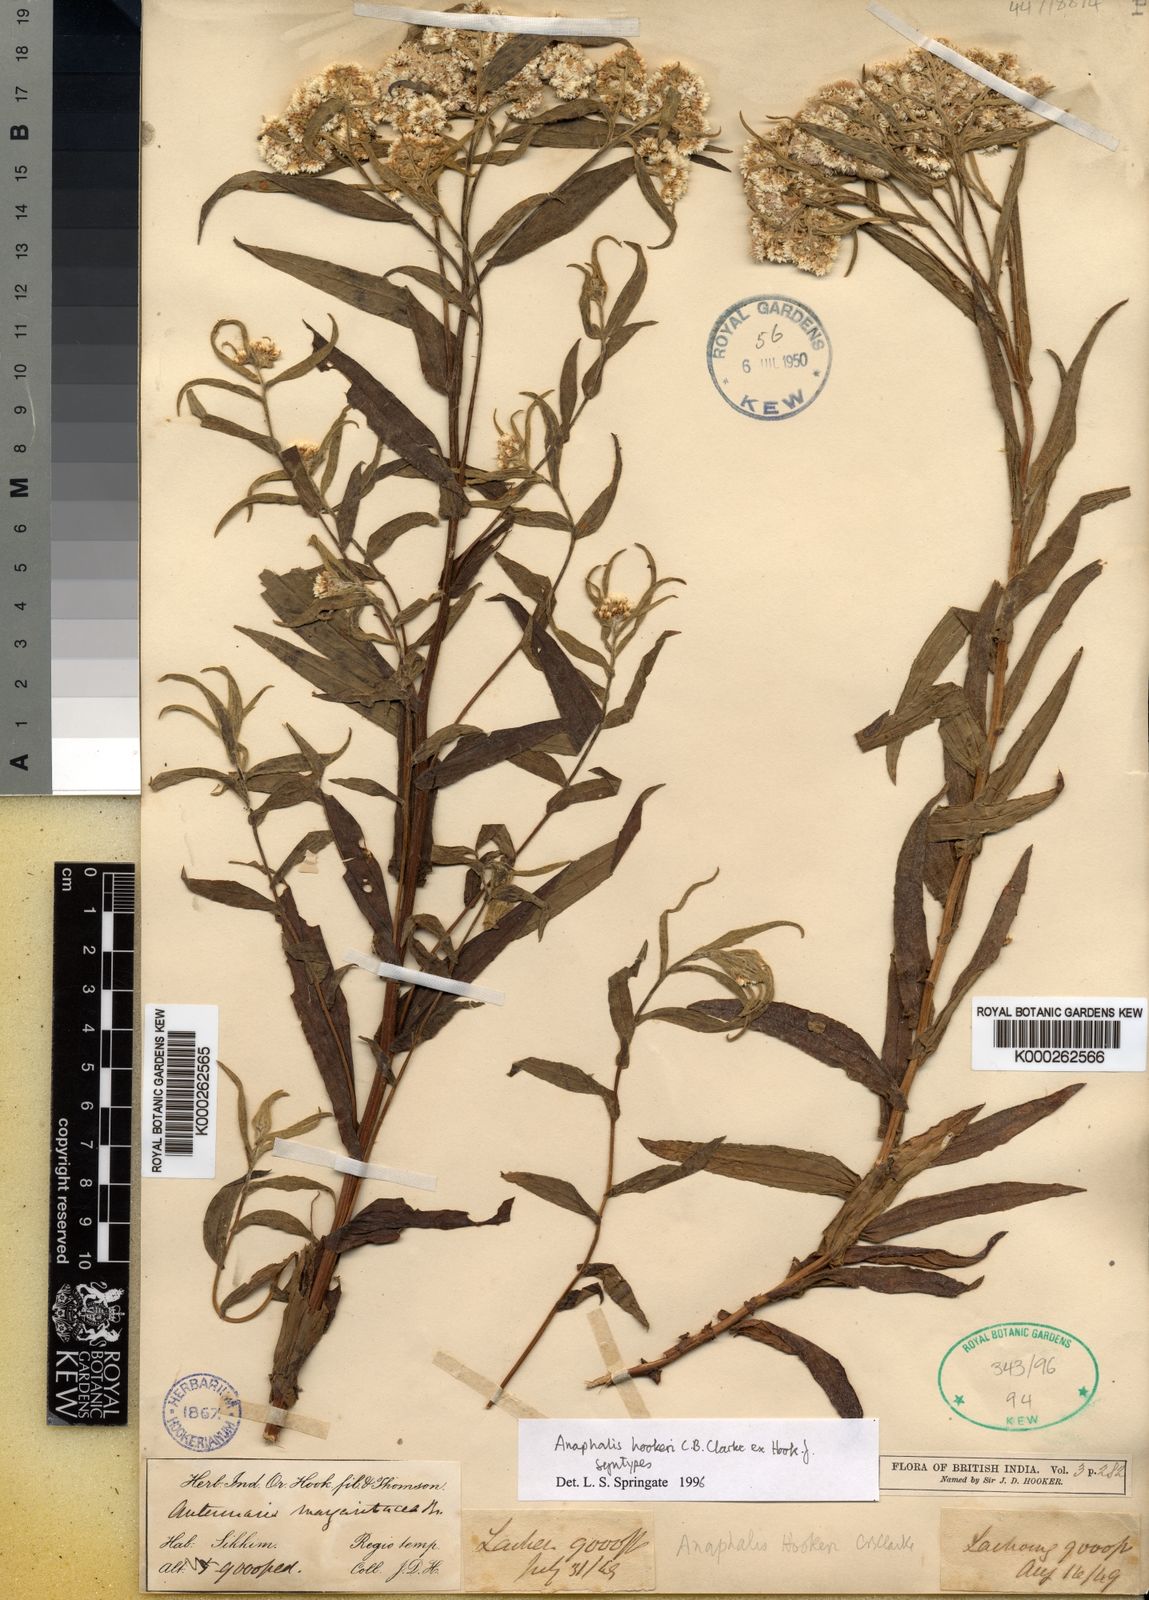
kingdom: Plantae
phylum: Tracheophyta
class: Magnoliopsida
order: Asterales
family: Asteraceae
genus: Anaphalis
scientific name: Anaphalis
